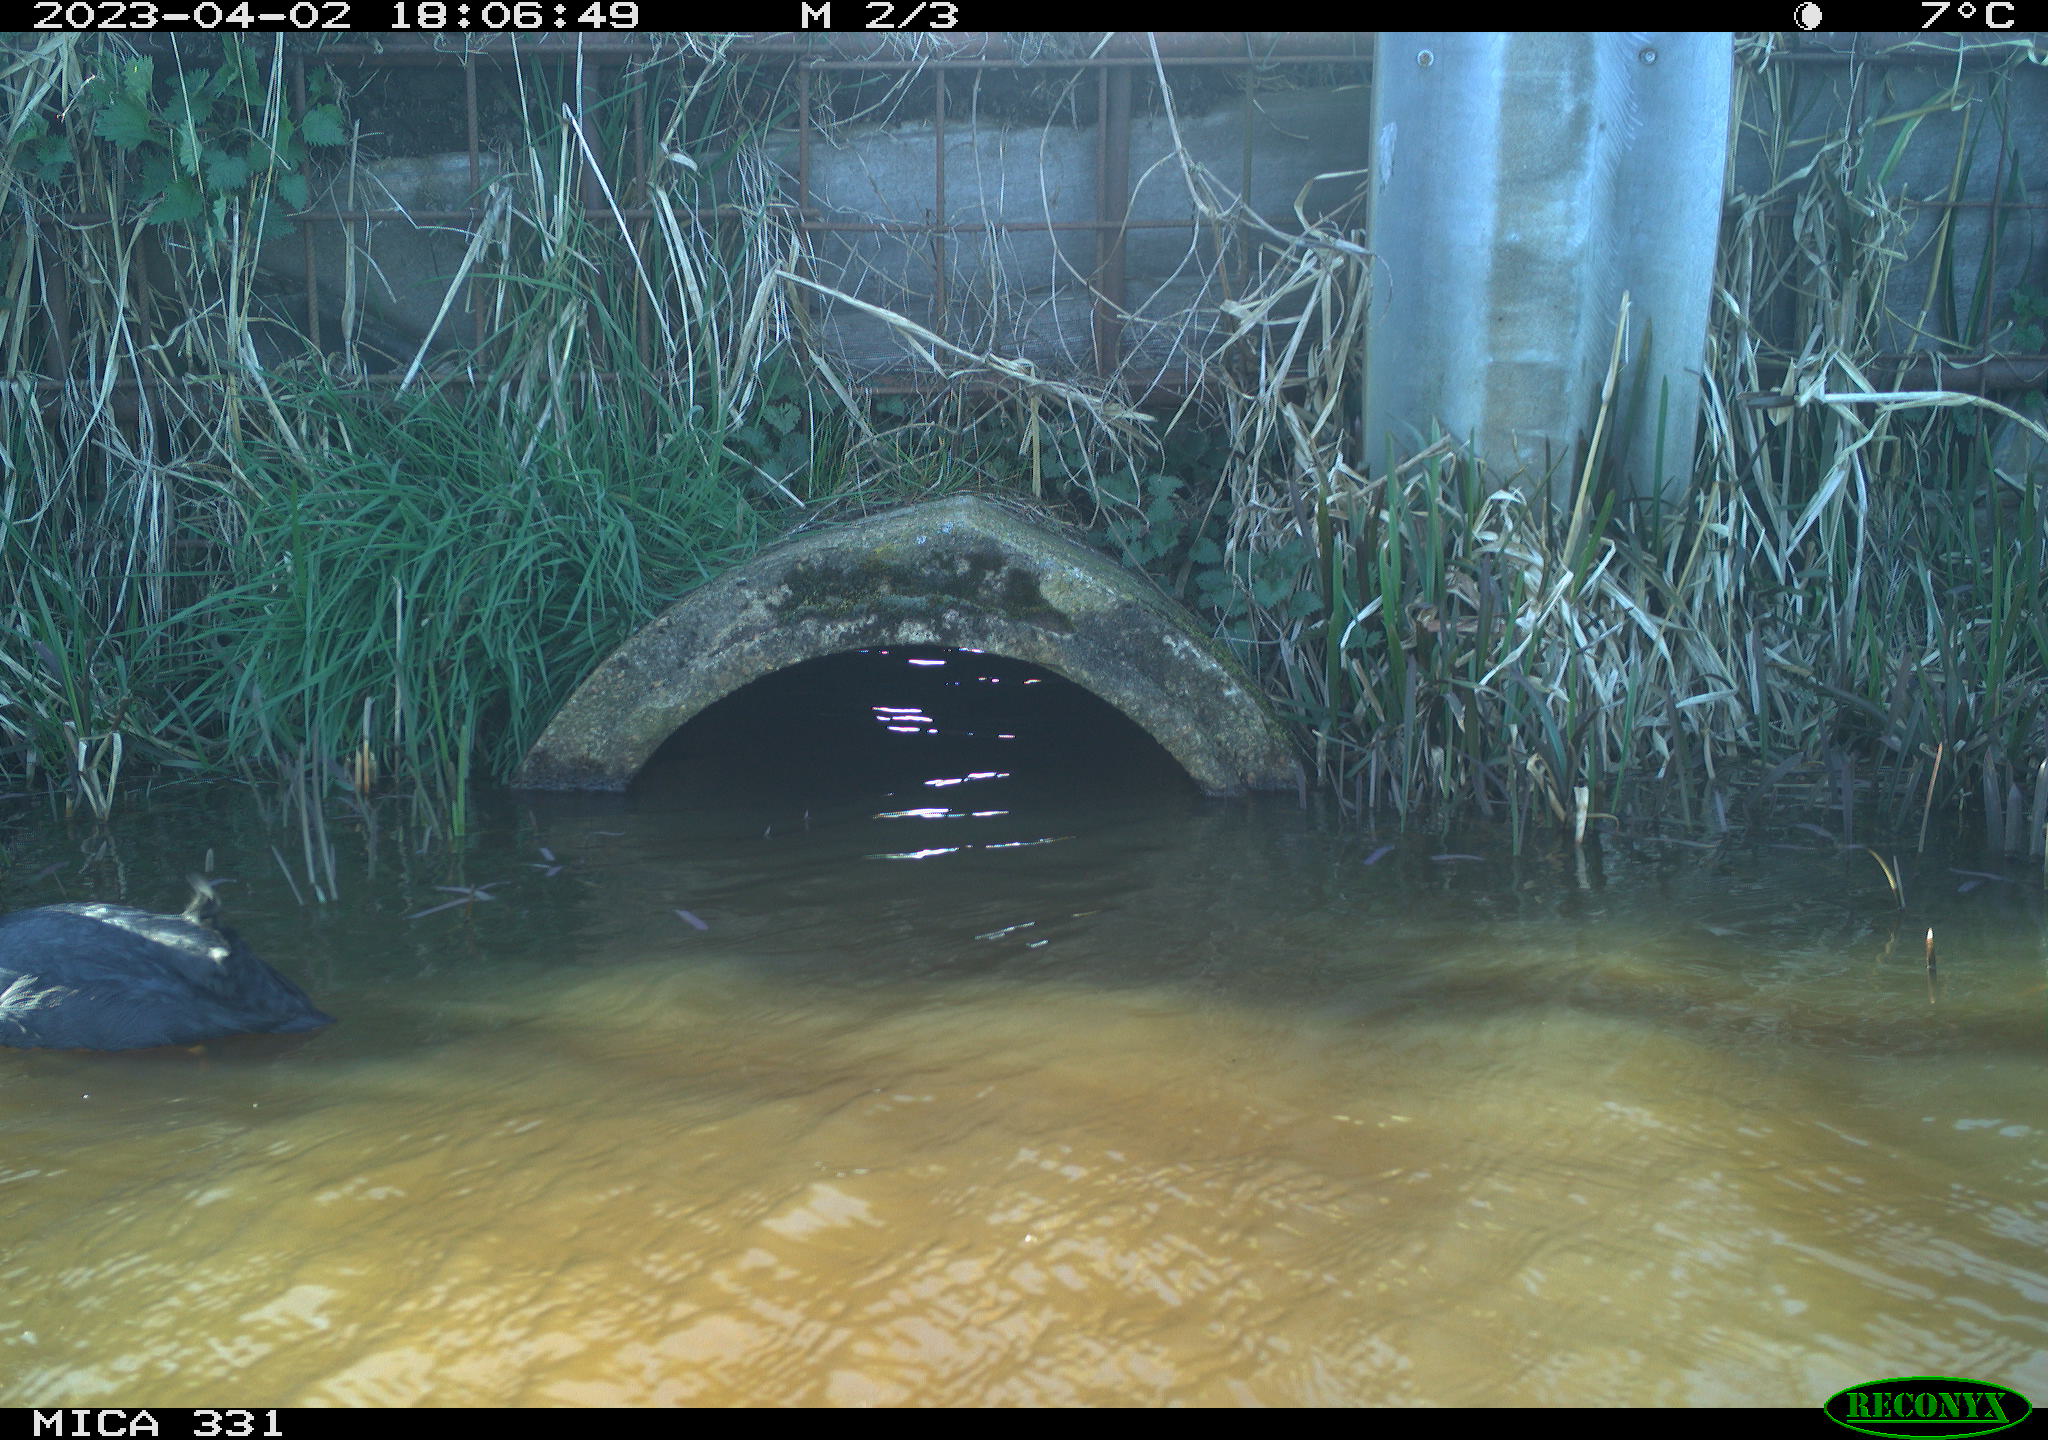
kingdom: Animalia
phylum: Chordata
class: Aves
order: Anseriformes
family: Anatidae
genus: Anas
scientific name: Anas
